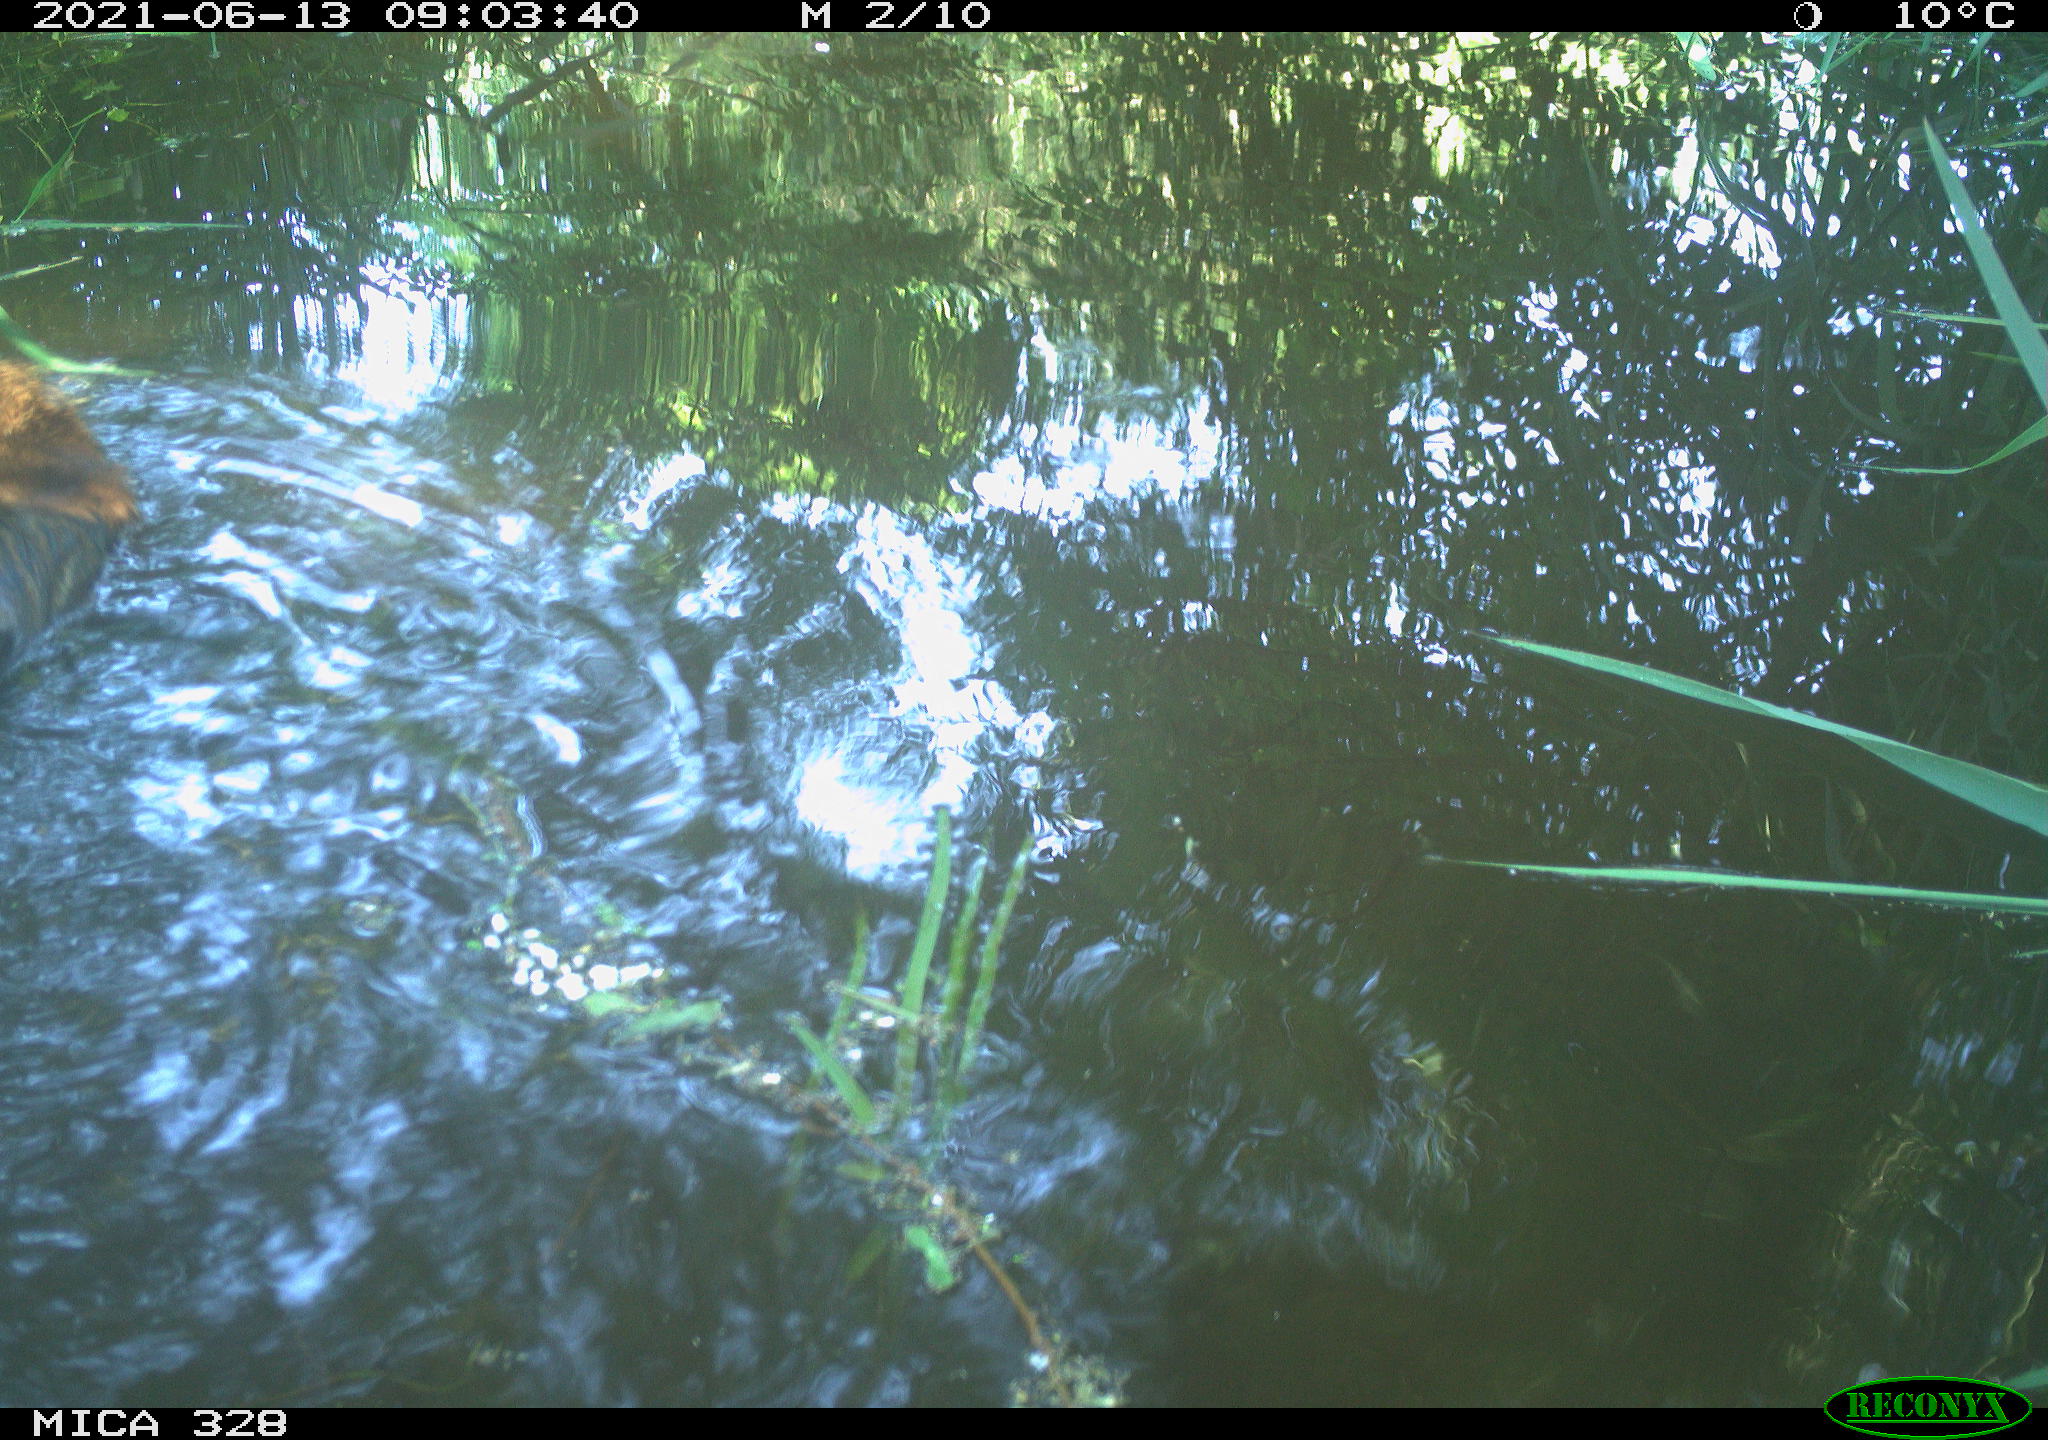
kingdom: Animalia
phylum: Chordata
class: Mammalia
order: Rodentia
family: Cricetidae
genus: Ondatra
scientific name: Ondatra zibethicus
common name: Muskrat
